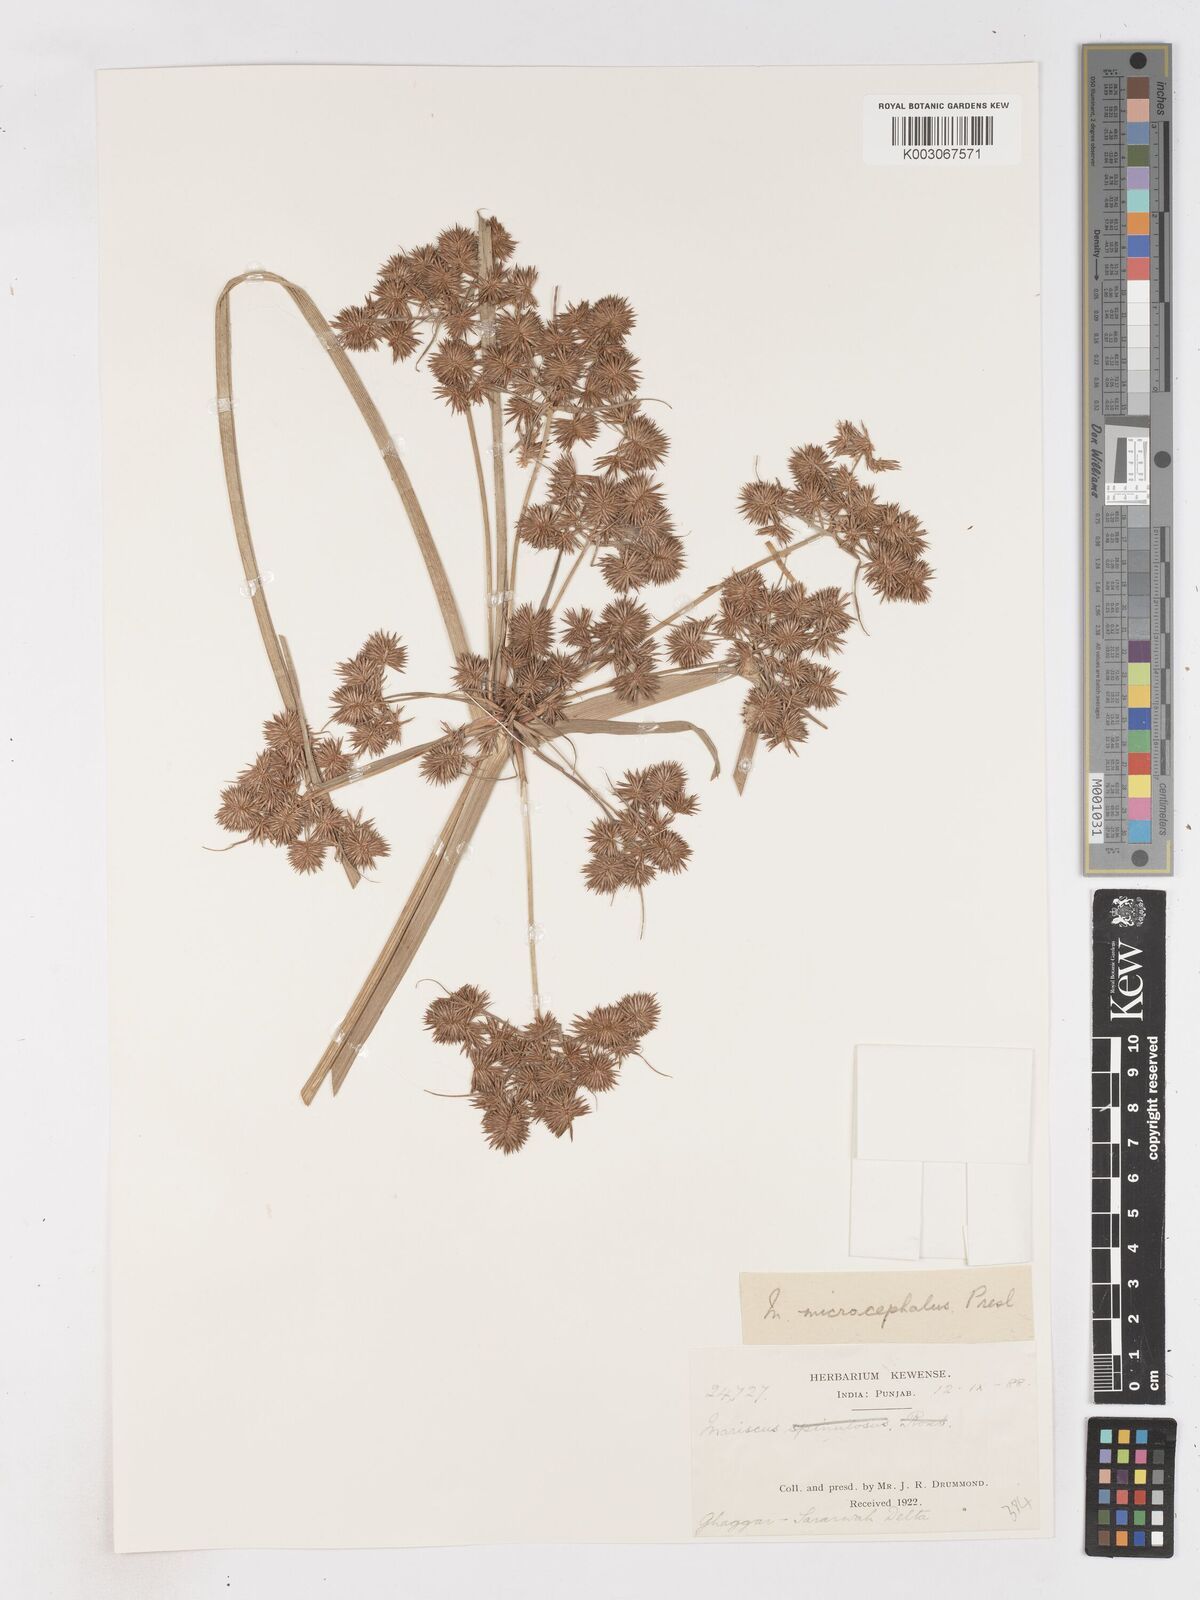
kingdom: Plantae
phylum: Tracheophyta
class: Liliopsida
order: Poales
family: Cyperaceae
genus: Cyperus
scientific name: Cyperus compactus
